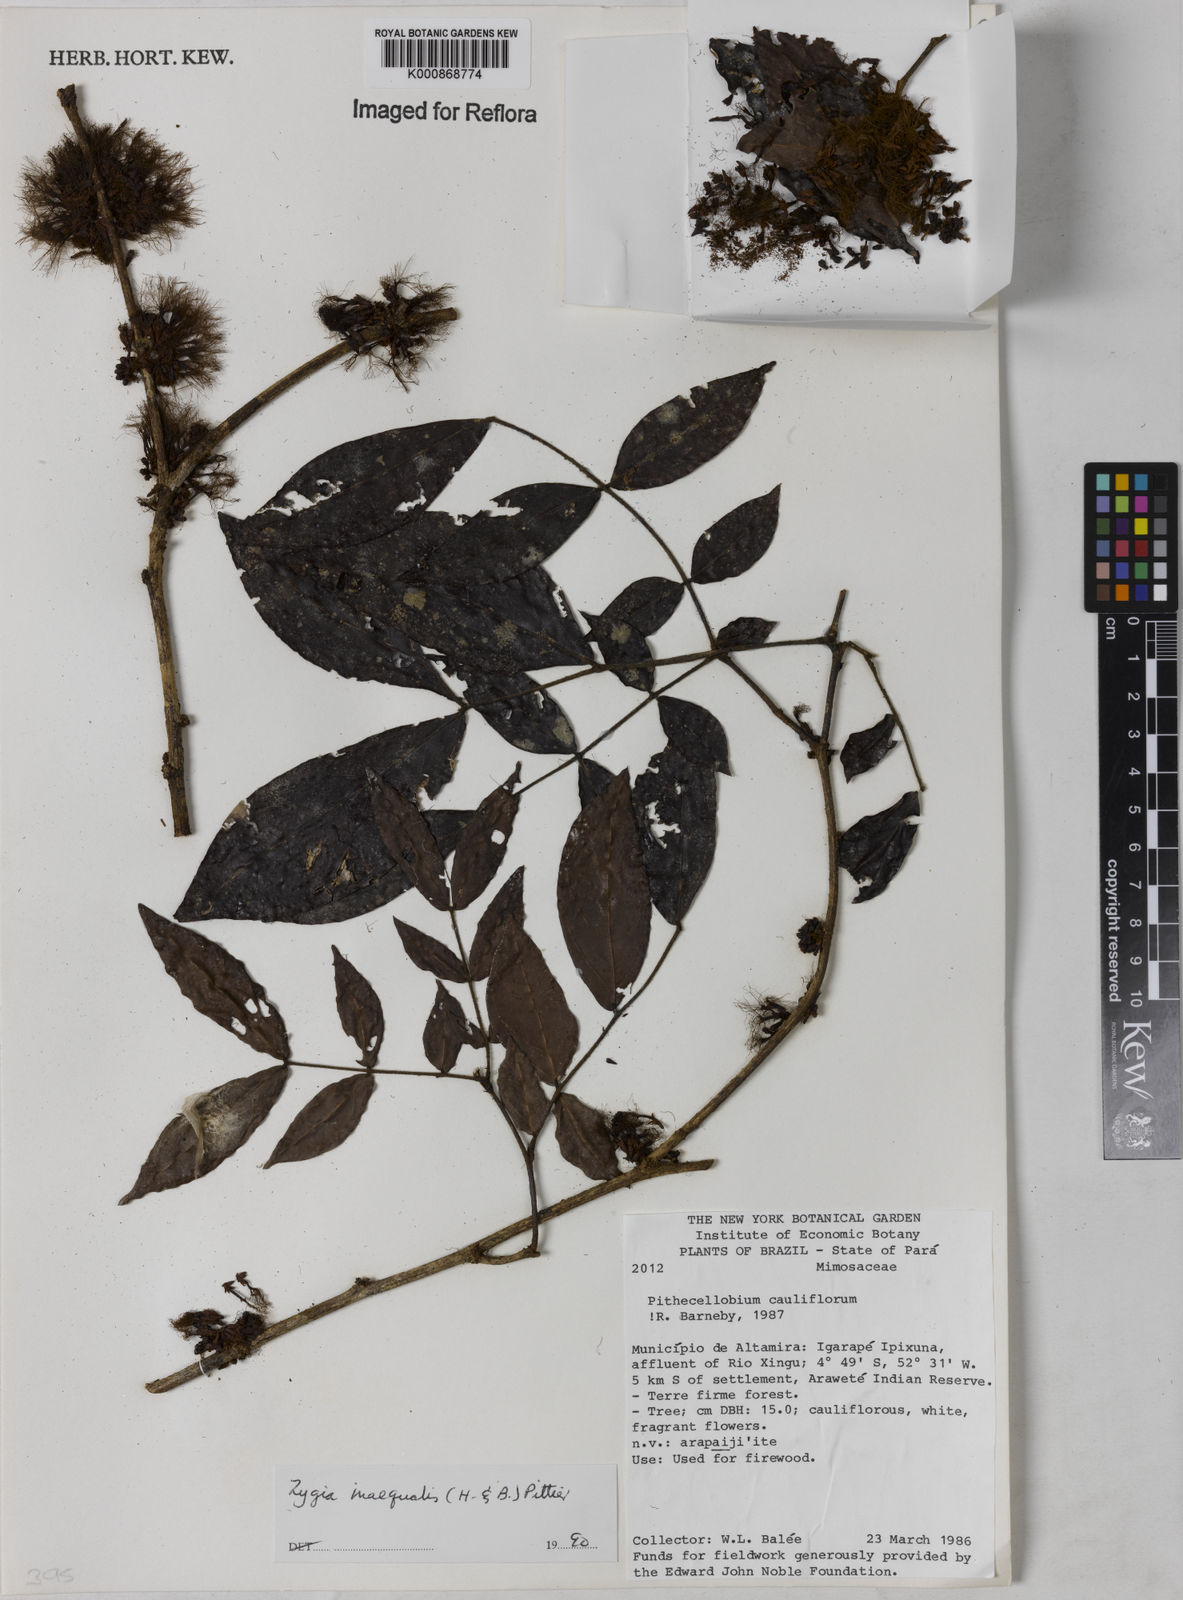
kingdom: Plantae
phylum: Tracheophyta
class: Magnoliopsida
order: Fabales
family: Fabaceae
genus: Zygia
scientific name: Zygia inaequalis
